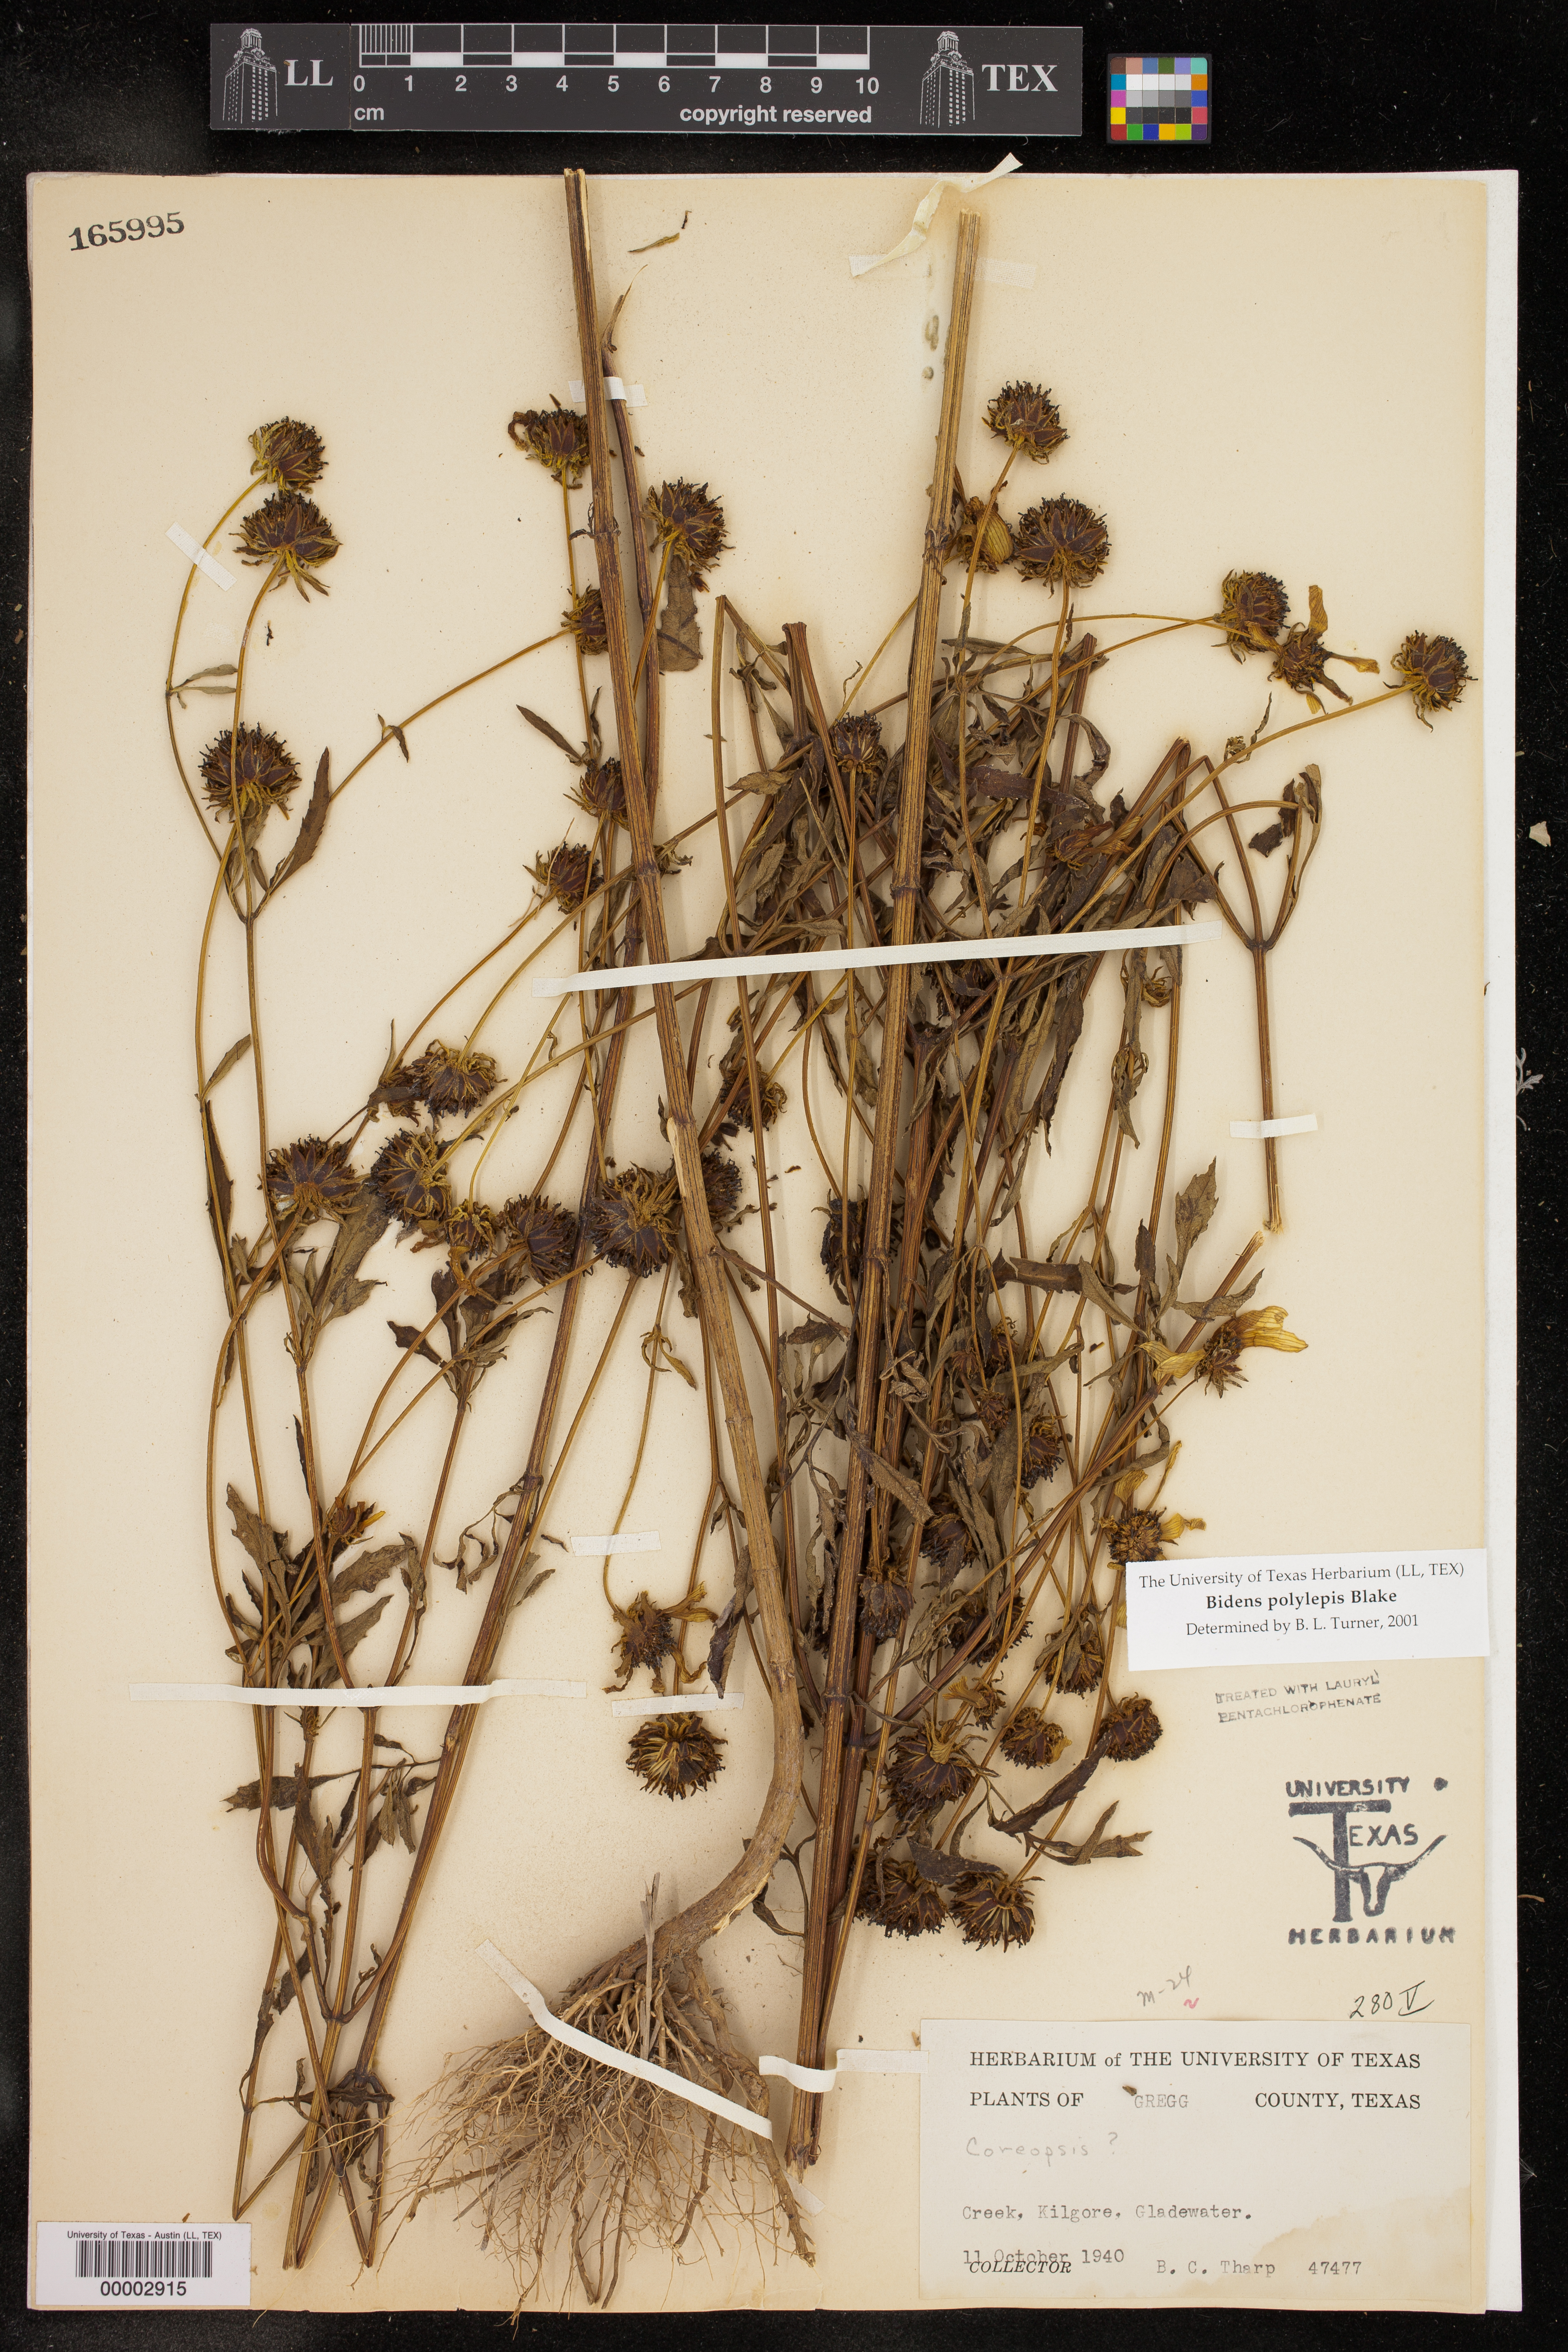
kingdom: Plantae
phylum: Tracheophyta
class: Magnoliopsida
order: Asterales
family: Asteraceae
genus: Bidens
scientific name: Bidens polylepis
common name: Awnless beggarticks
